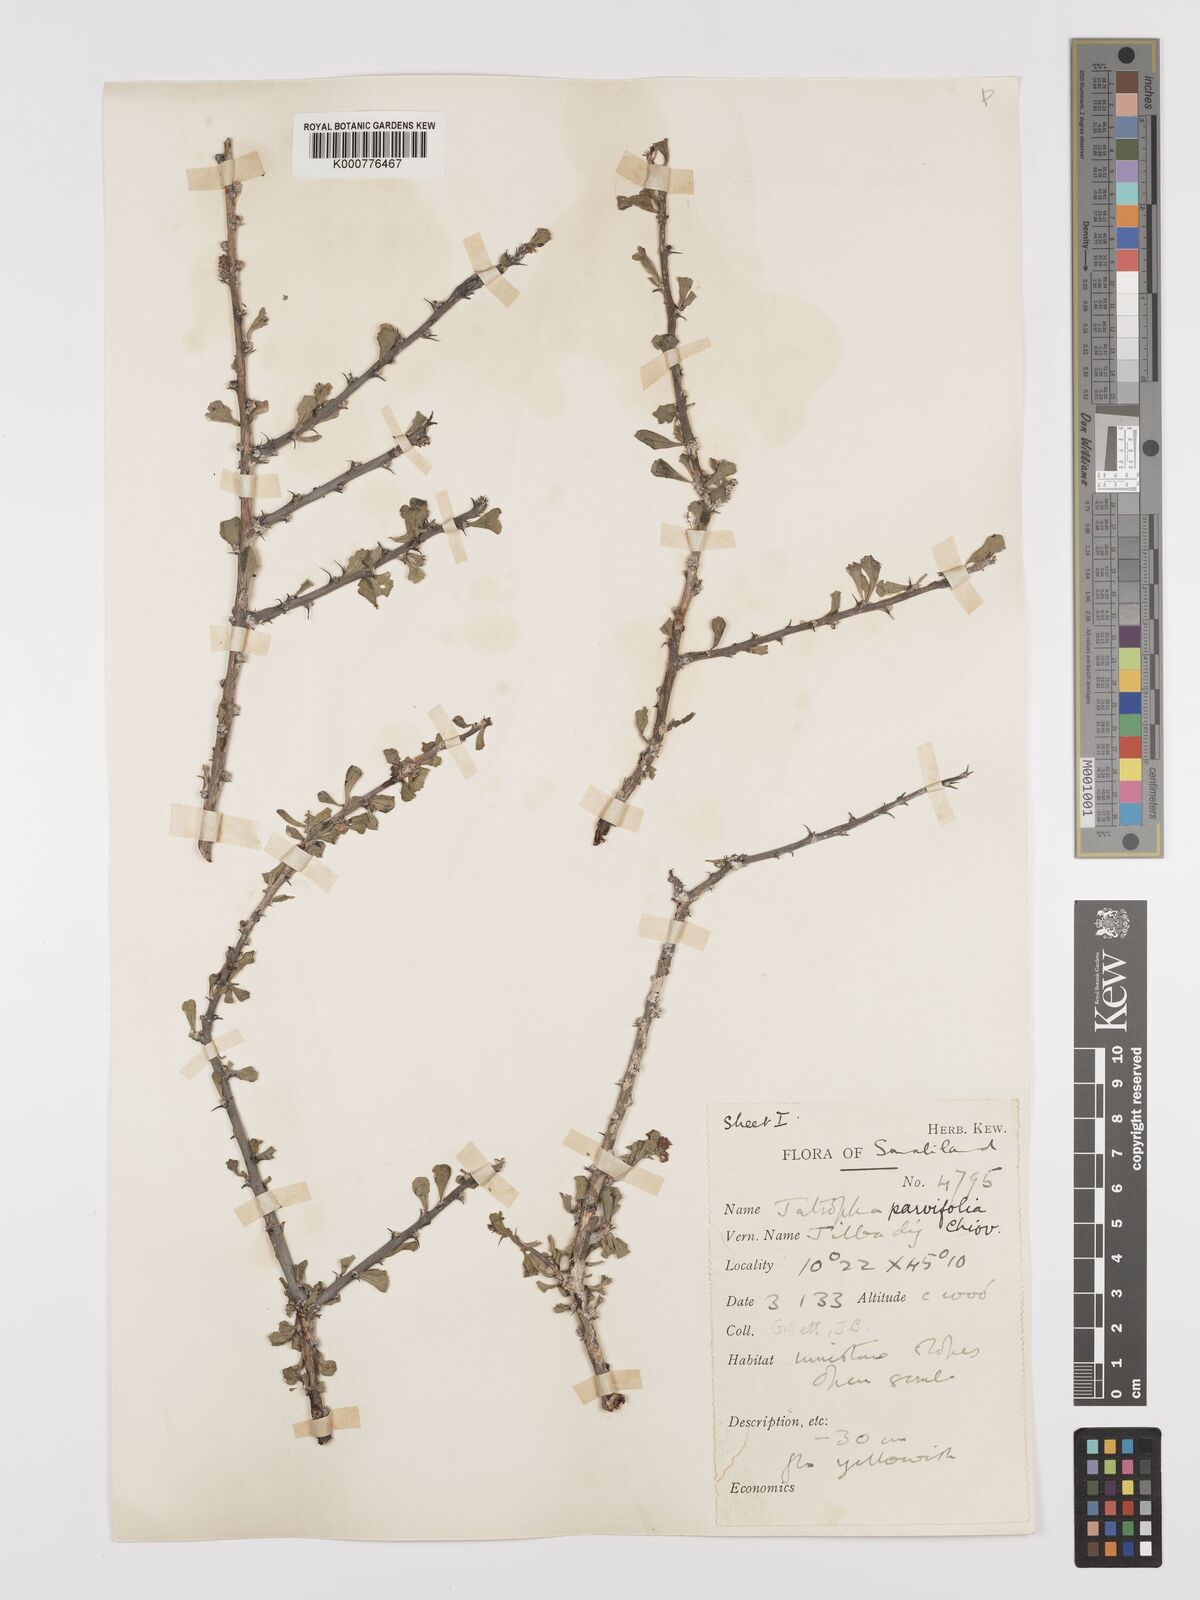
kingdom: Plantae
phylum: Tracheophyta
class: Magnoliopsida
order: Malpighiales
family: Euphorbiaceae
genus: Jatropha
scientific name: Jatropha rivae
